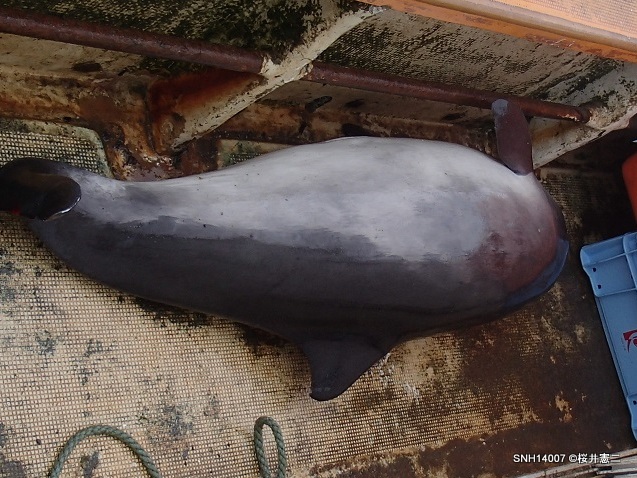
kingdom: Animalia
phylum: Chordata
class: Mammalia
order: Cetacea
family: Phocoenidae
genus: Phocoena
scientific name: Phocoena phocoena
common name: Harbour porpoise
